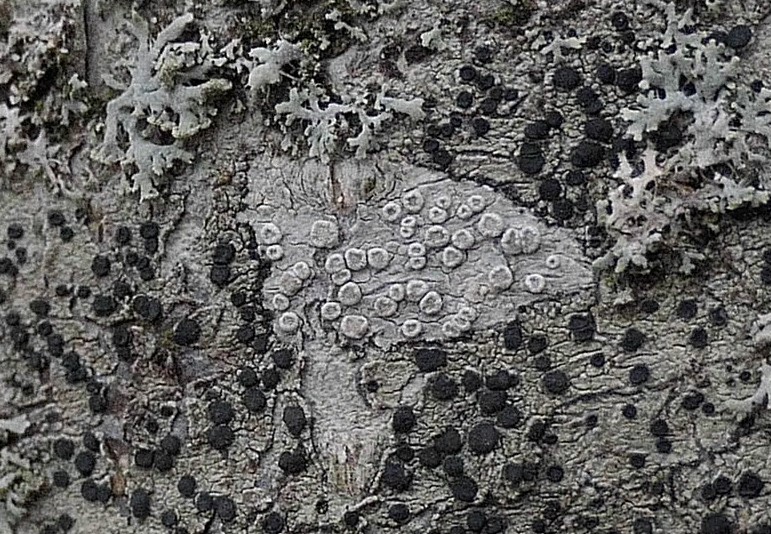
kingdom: Fungi
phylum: Ascomycota
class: Lecanoromycetes
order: Lecanorales
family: Lecanoraceae
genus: Glaucomaria
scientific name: Glaucomaria carpinea
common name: hviddugget kantskivelav
